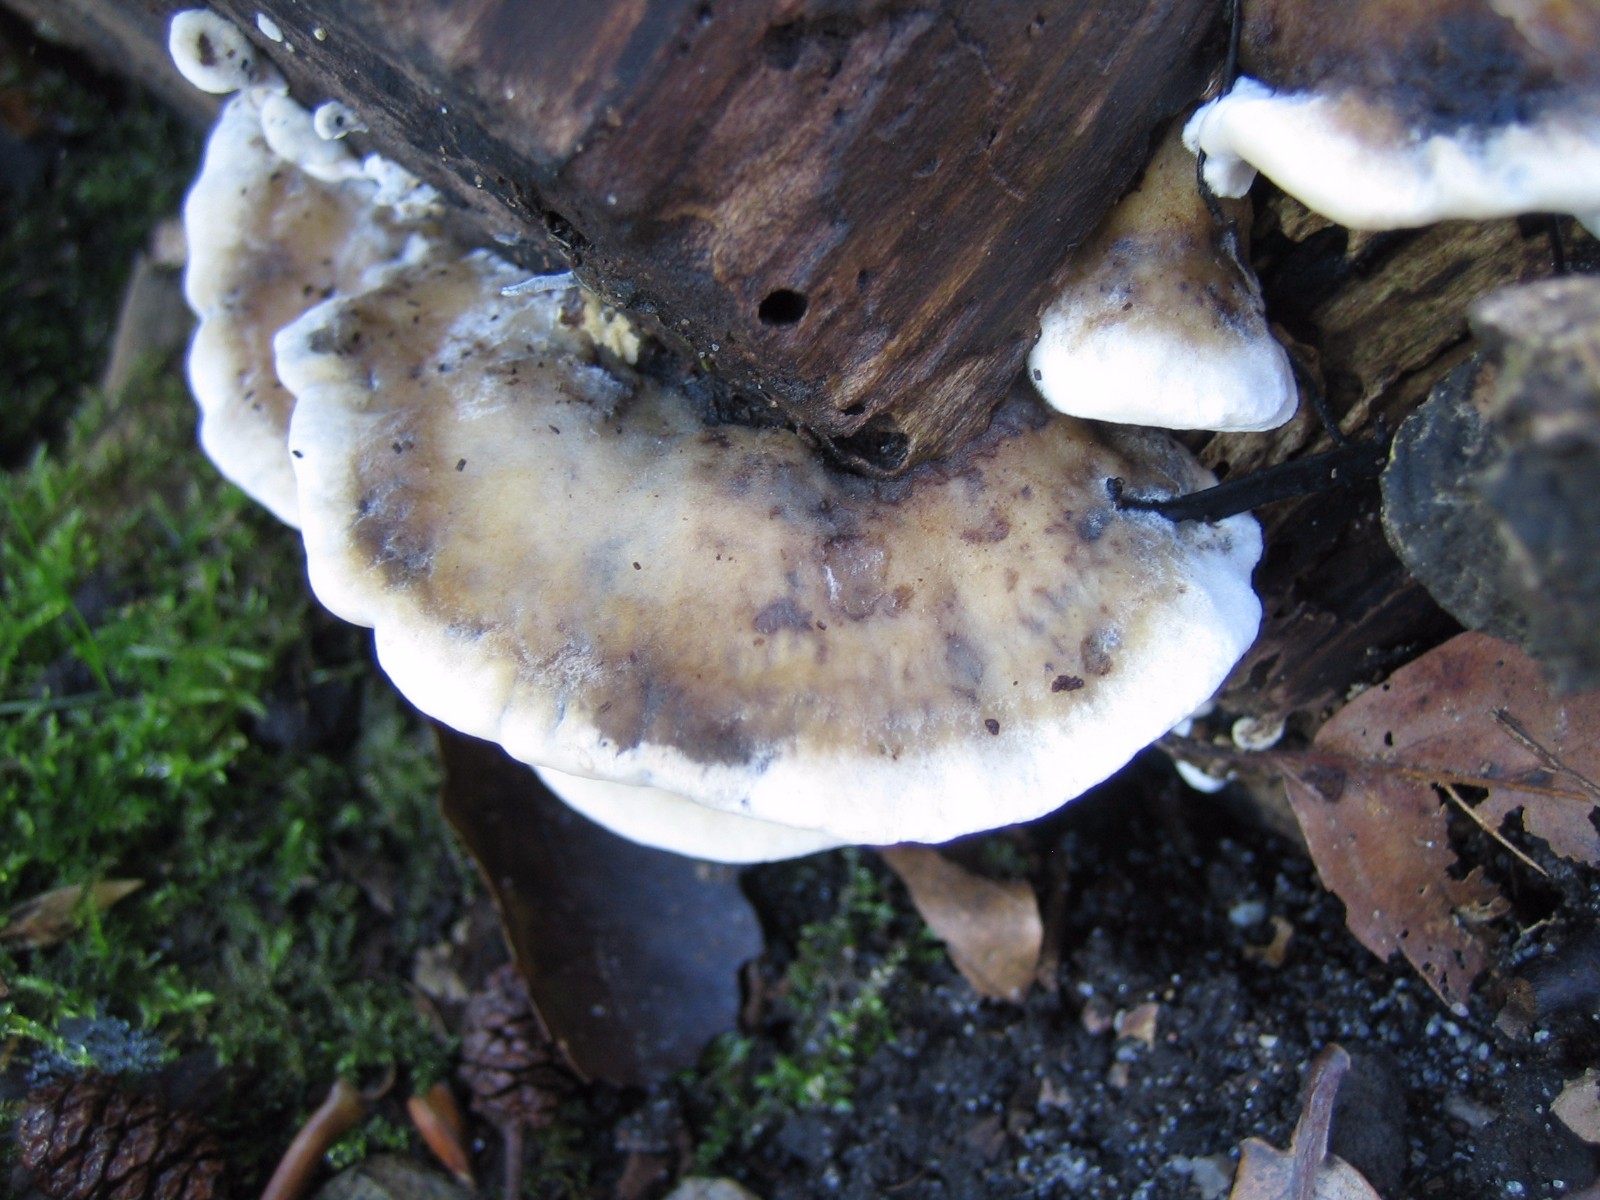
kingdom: Fungi
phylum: Basidiomycota
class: Agaricomycetes
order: Polyporales
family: Phanerochaetaceae
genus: Bjerkandera
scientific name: Bjerkandera adusta
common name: sveden sodporesvamp
